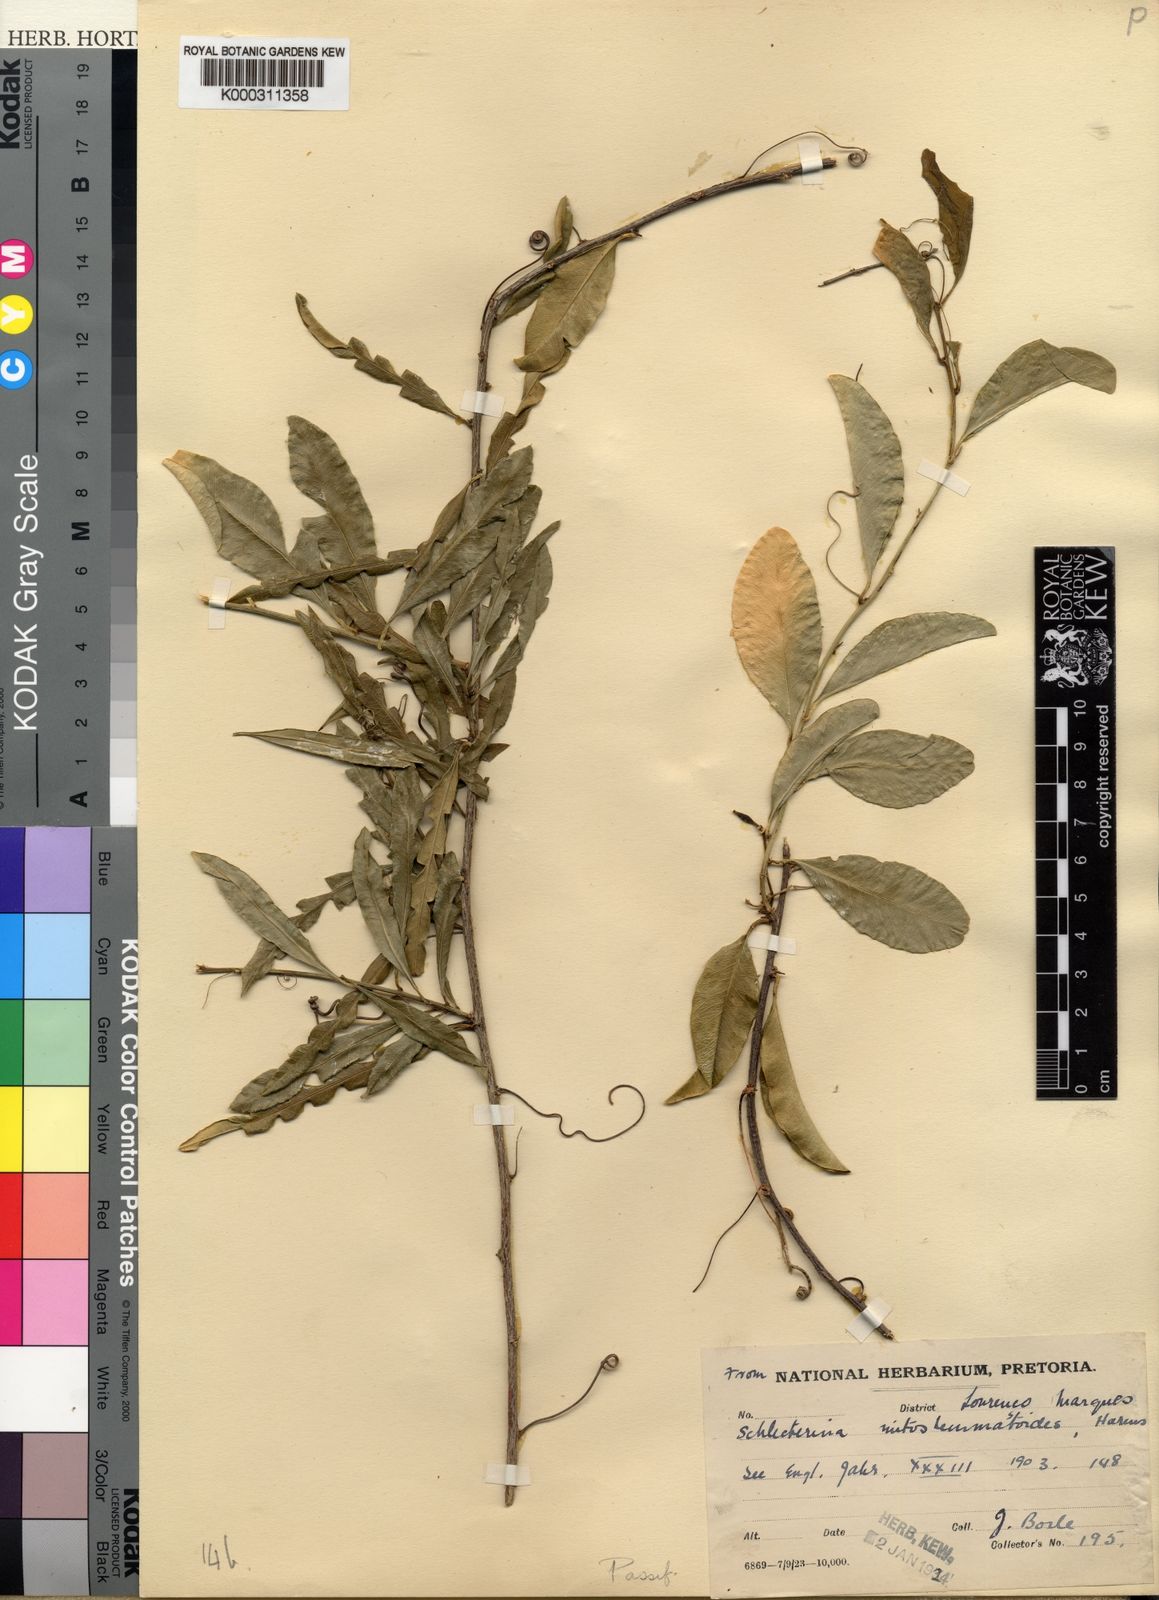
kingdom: Plantae
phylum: Tracheophyta
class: Magnoliopsida
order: Malpighiales
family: Passifloraceae
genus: Schlechterina
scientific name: Schlechterina mitostemmatoides
